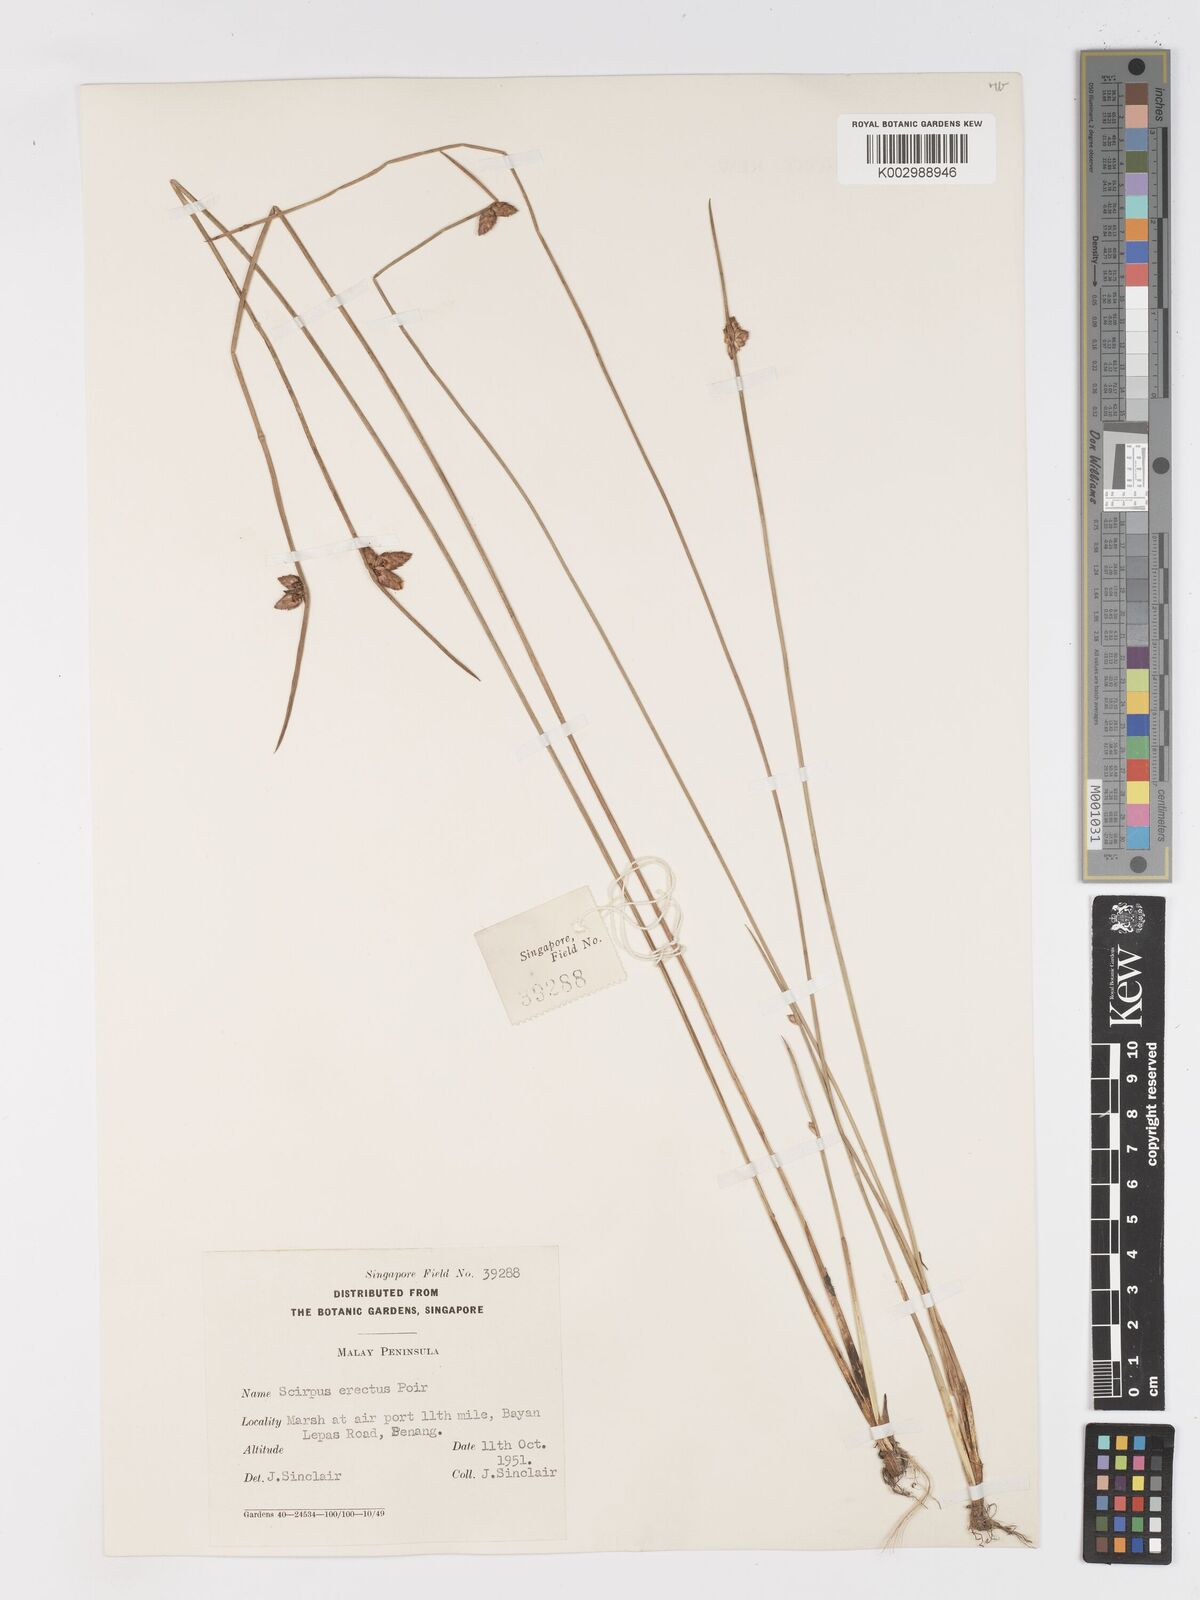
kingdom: Plantae
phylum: Tracheophyta
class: Liliopsida
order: Poales
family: Cyperaceae
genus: Schoenoplectiella
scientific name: Schoenoplectiella juncoides
